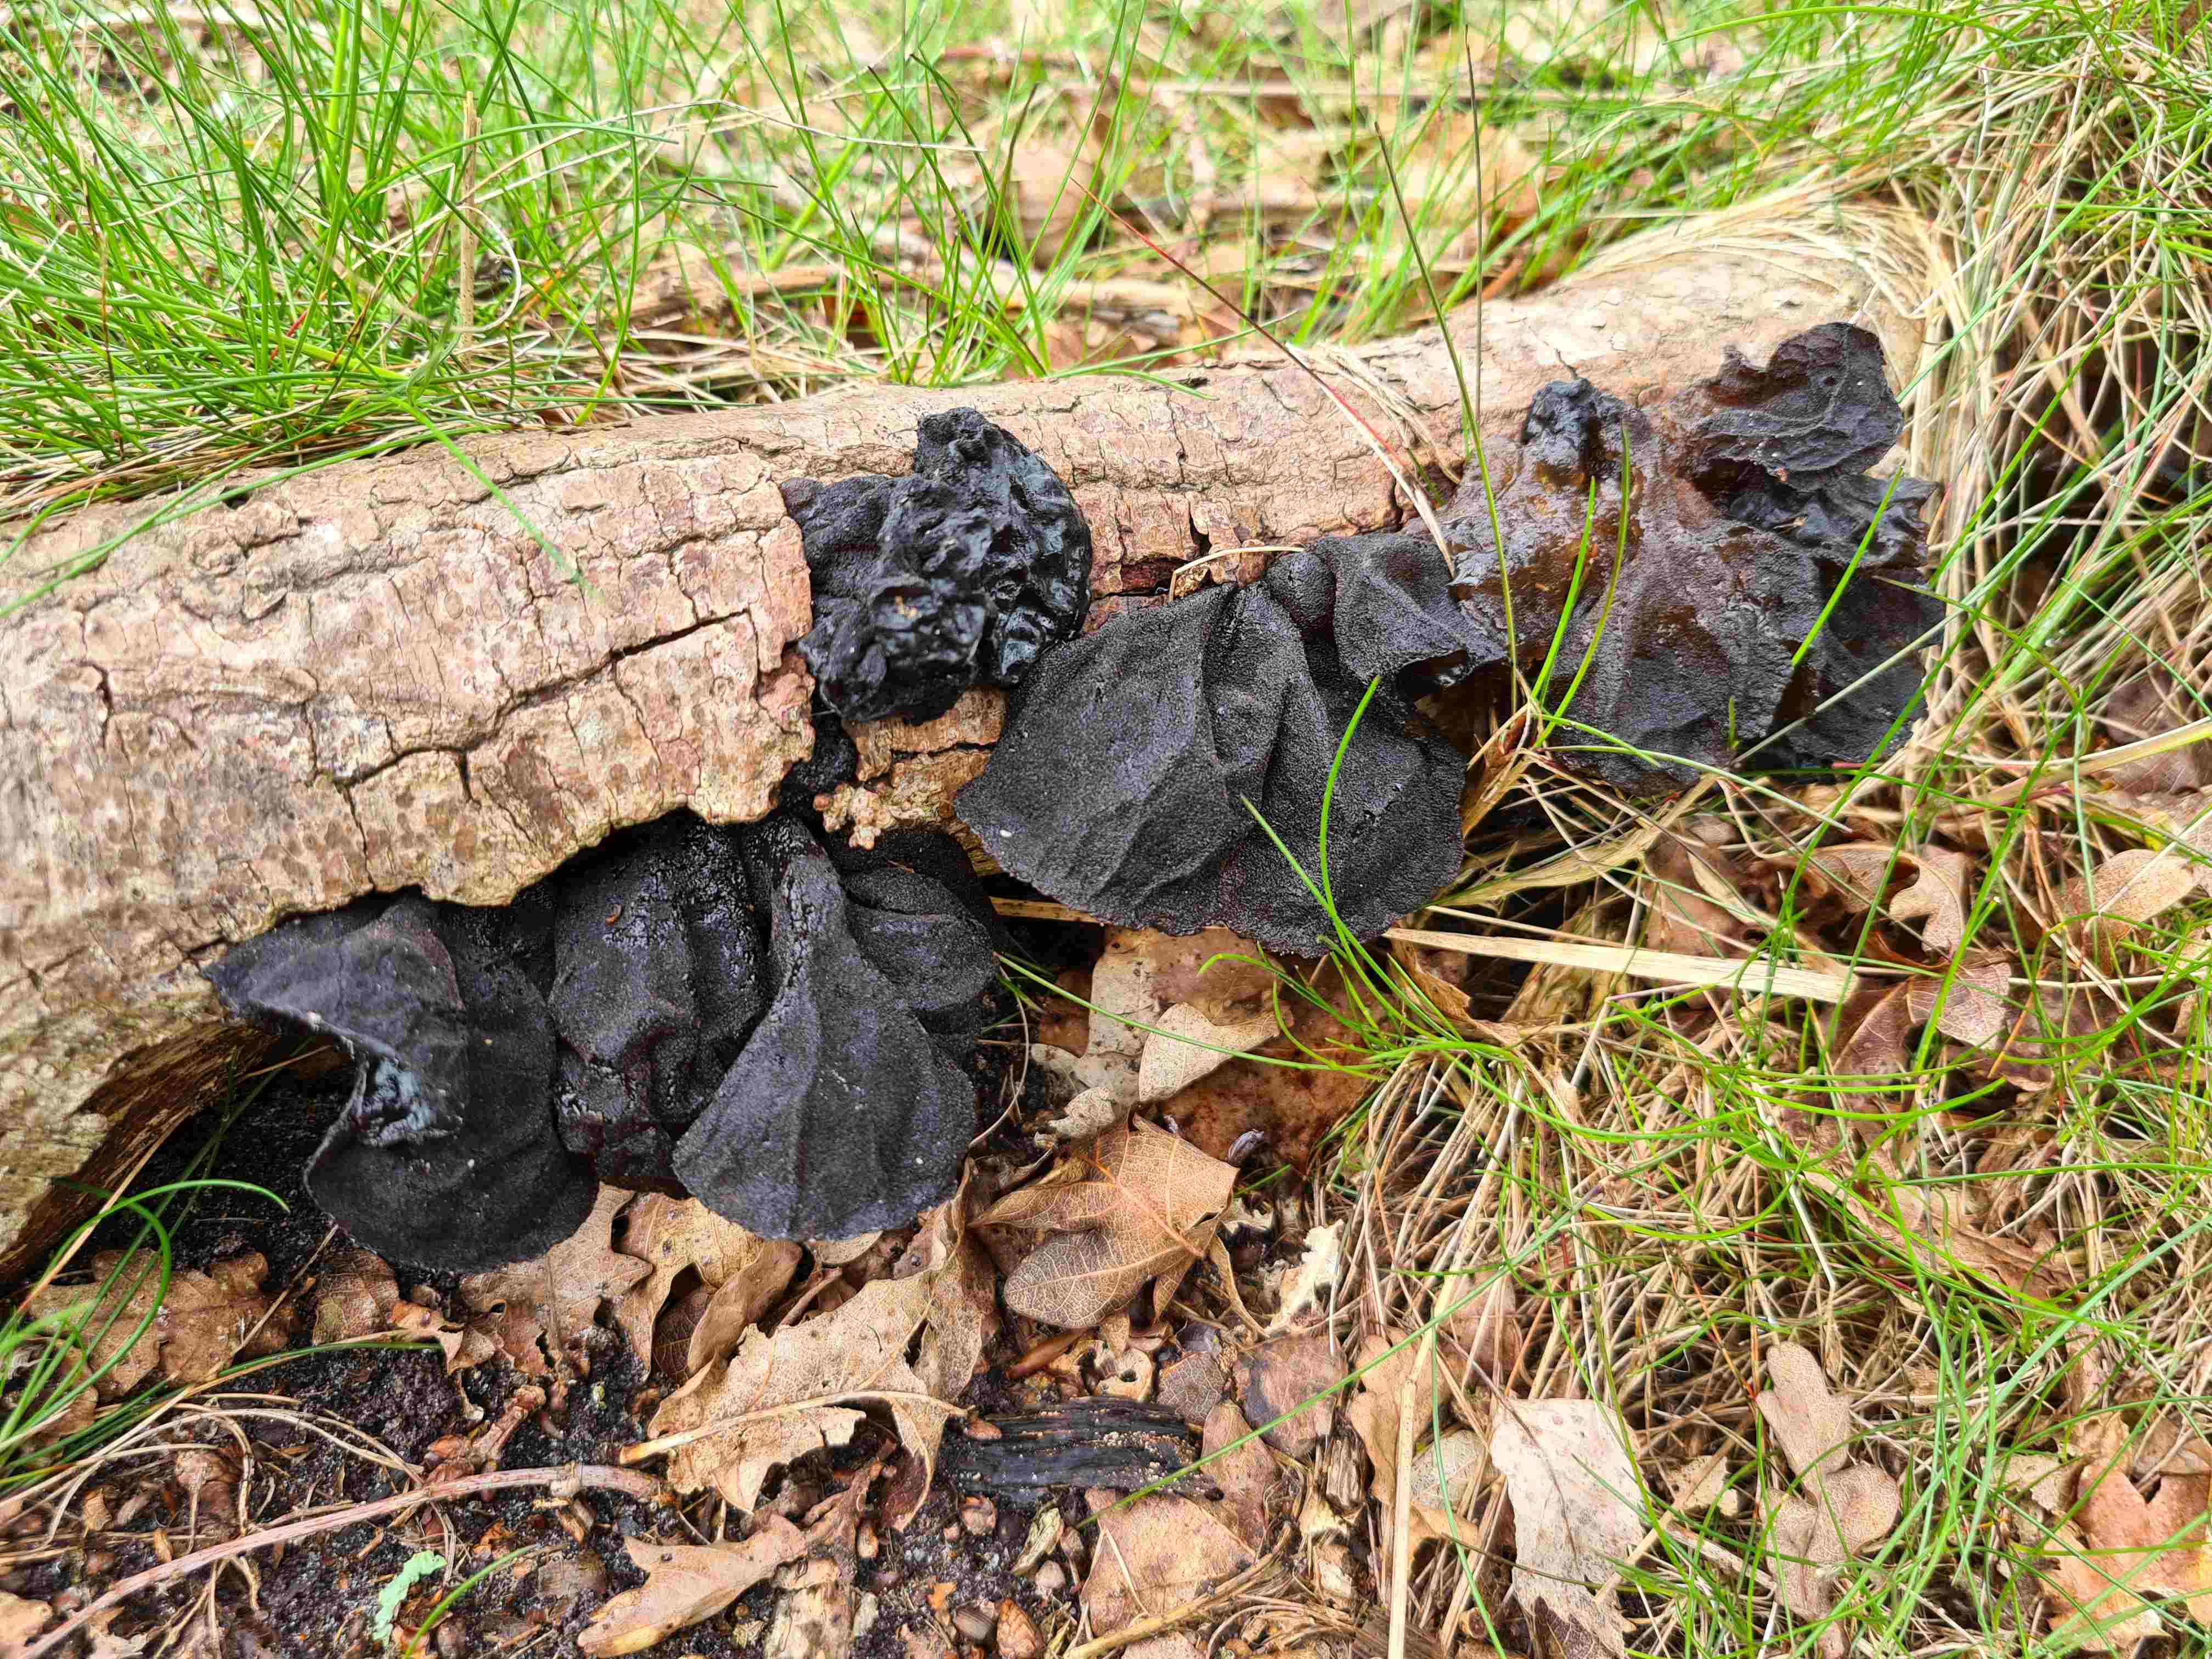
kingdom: Fungi
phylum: Basidiomycota
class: Agaricomycetes
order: Auriculariales
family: Auriculariaceae
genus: Exidia
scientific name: Exidia glandulosa
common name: ege-bævretop
